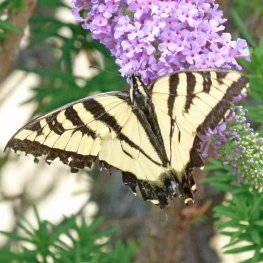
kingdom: Animalia
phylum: Arthropoda
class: Insecta
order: Lepidoptera
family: Papilionidae
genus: Pterourus
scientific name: Pterourus rutulus
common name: Western Tiger Swallowtail
